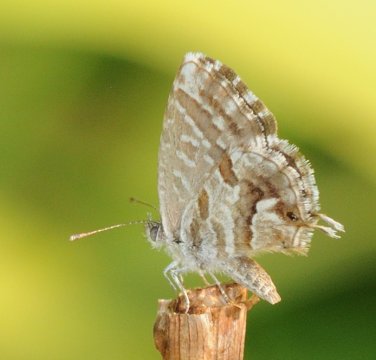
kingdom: Animalia
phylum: Arthropoda
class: Insecta
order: Lepidoptera
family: Lycaenidae
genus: Cacyreus
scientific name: Cacyreus marshalli
